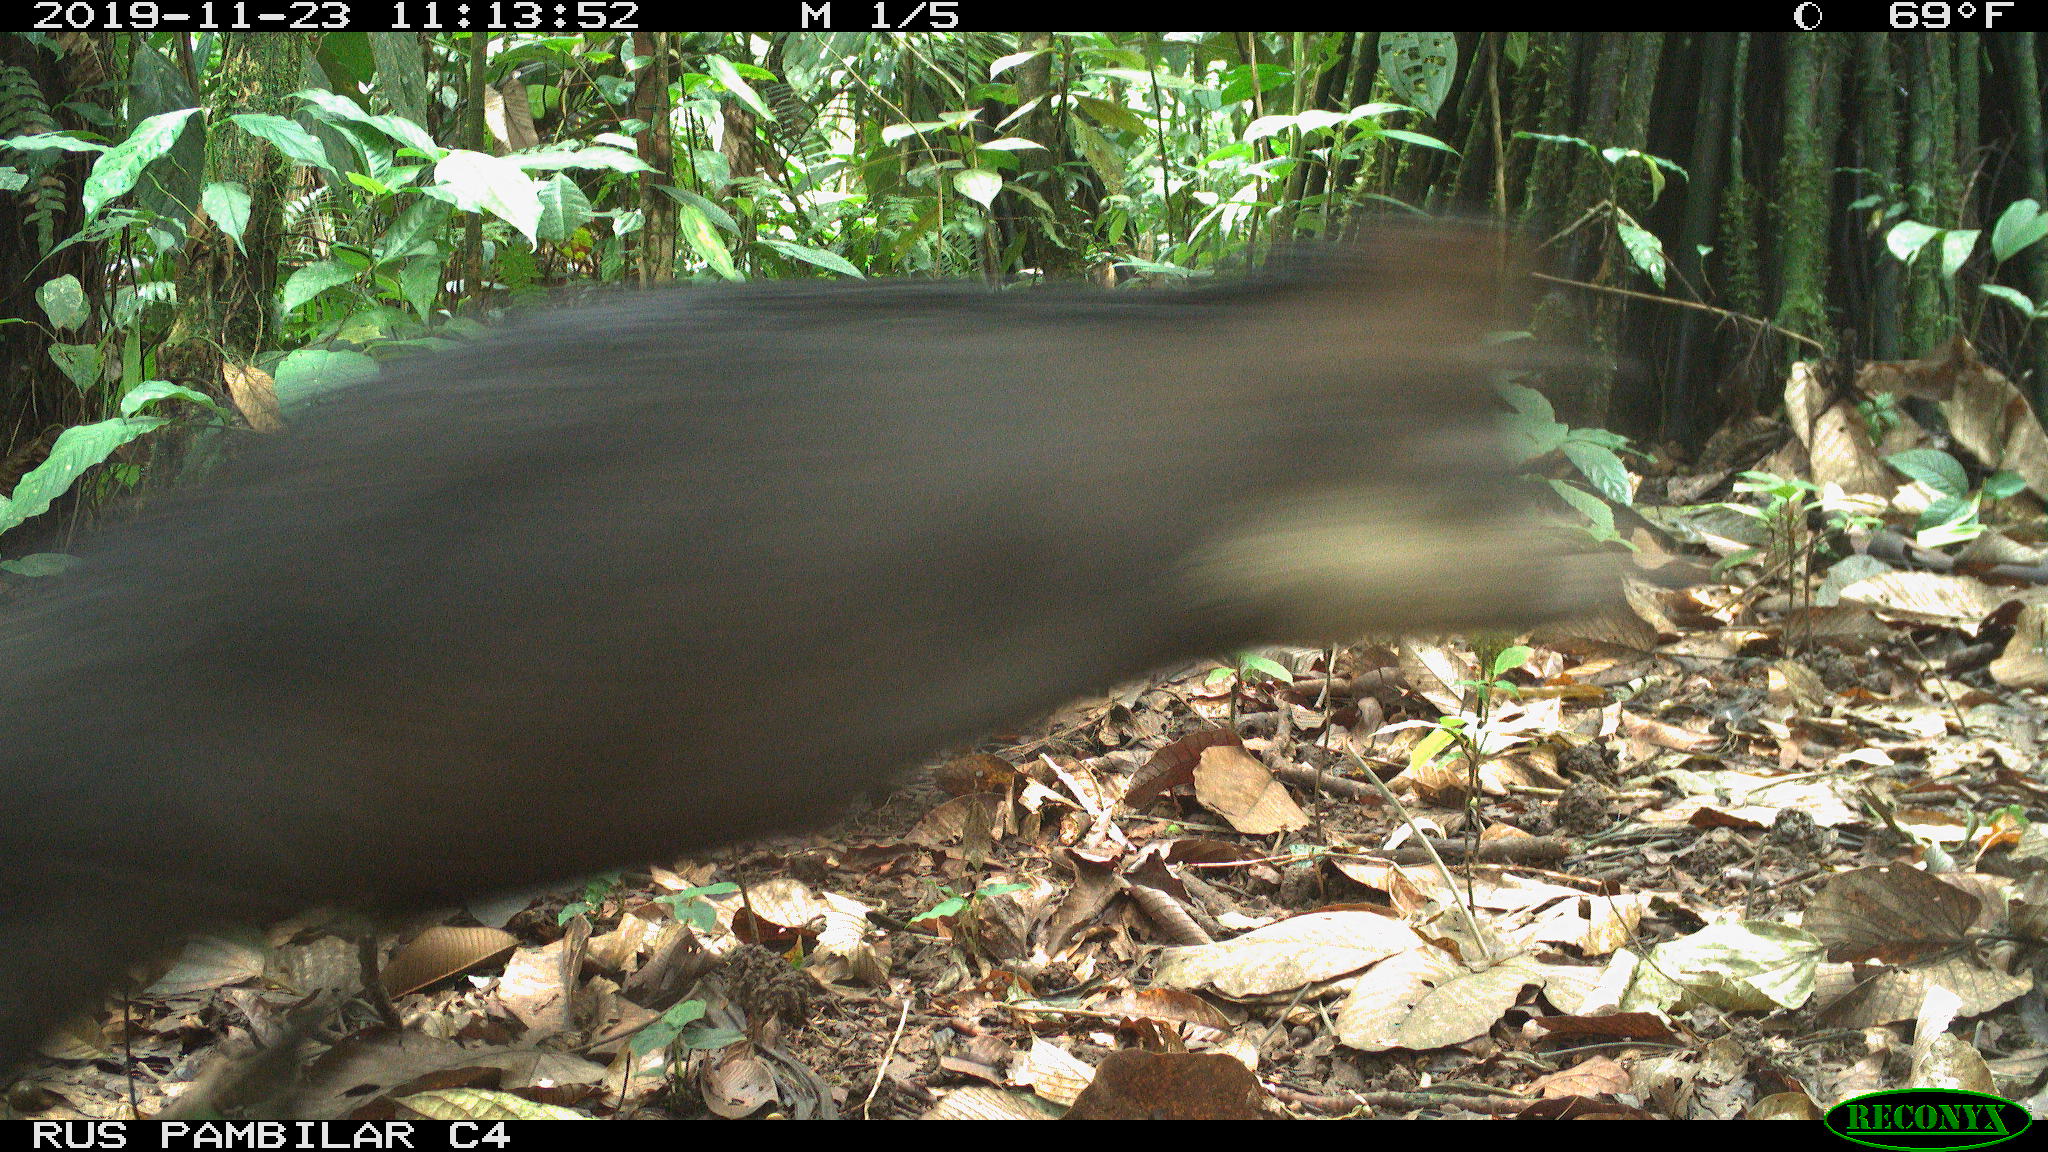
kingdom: Animalia
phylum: Chordata
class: Mammalia
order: Artiodactyla
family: Tayassuidae
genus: Tayassu
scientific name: Tayassu pecari
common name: White-lipped peccary
